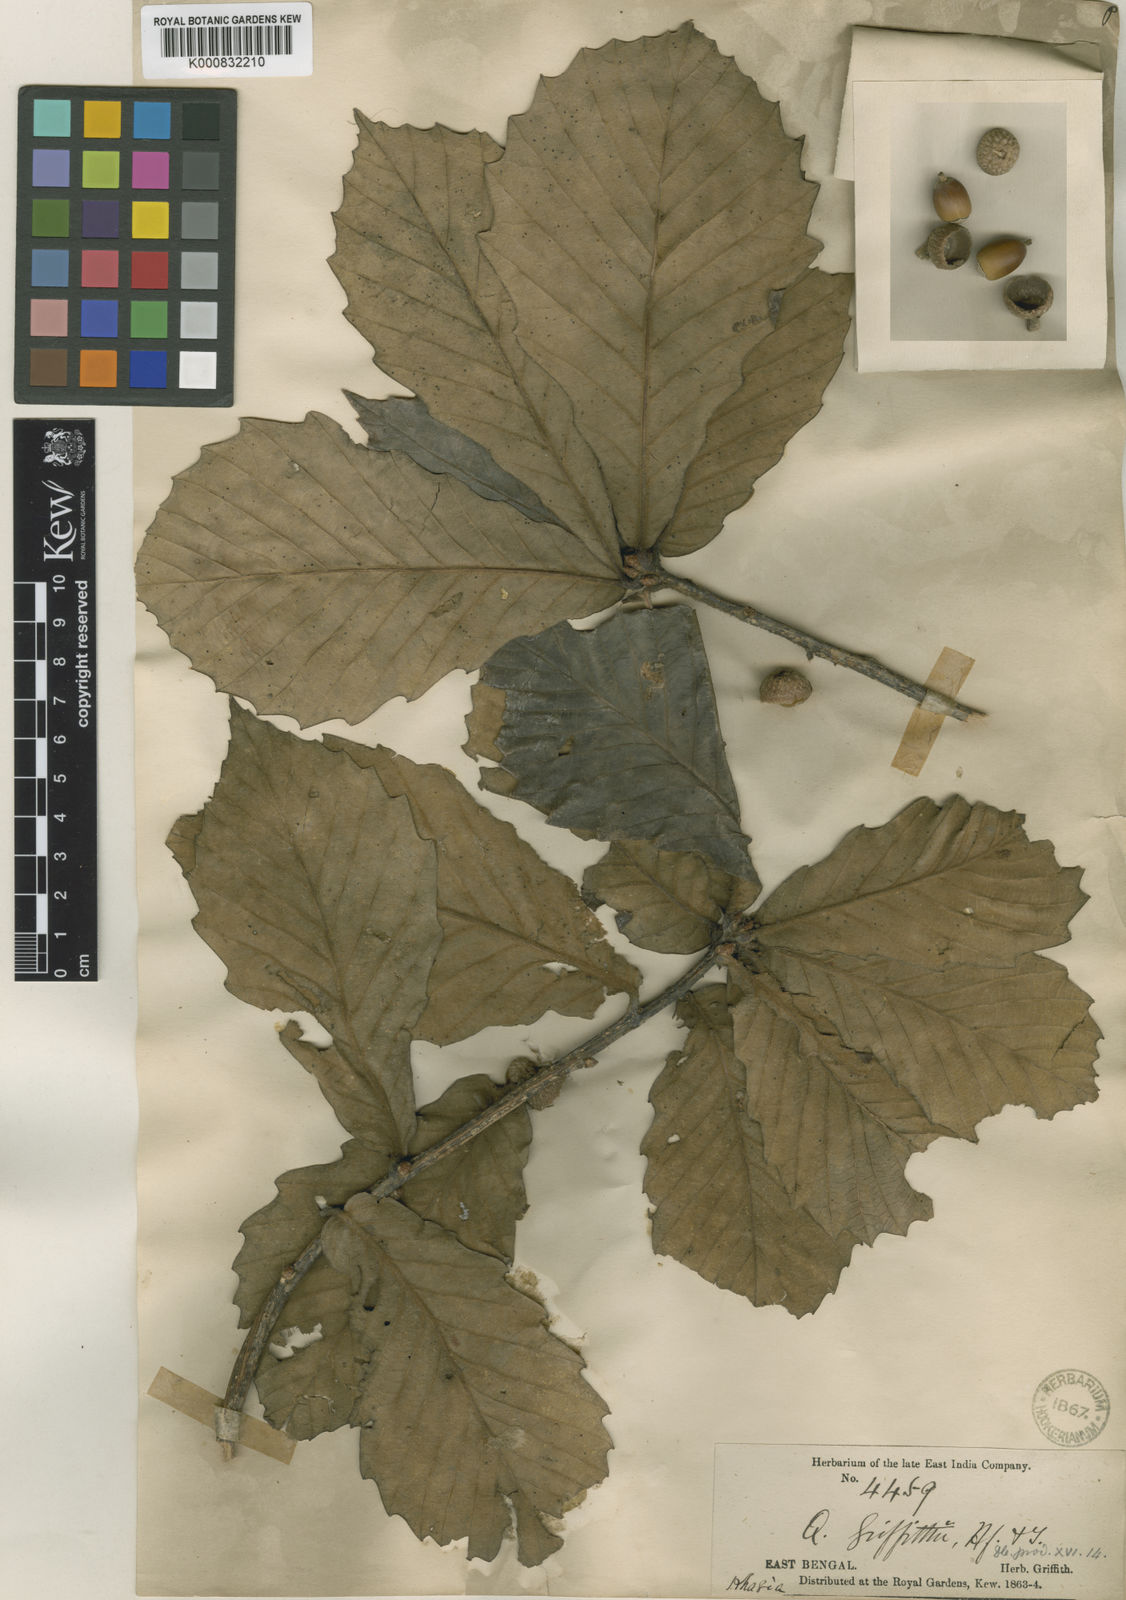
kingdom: Plantae
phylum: Tracheophyta
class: Magnoliopsida
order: Fagales
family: Fagaceae
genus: Quercus
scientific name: Quercus griffithii
